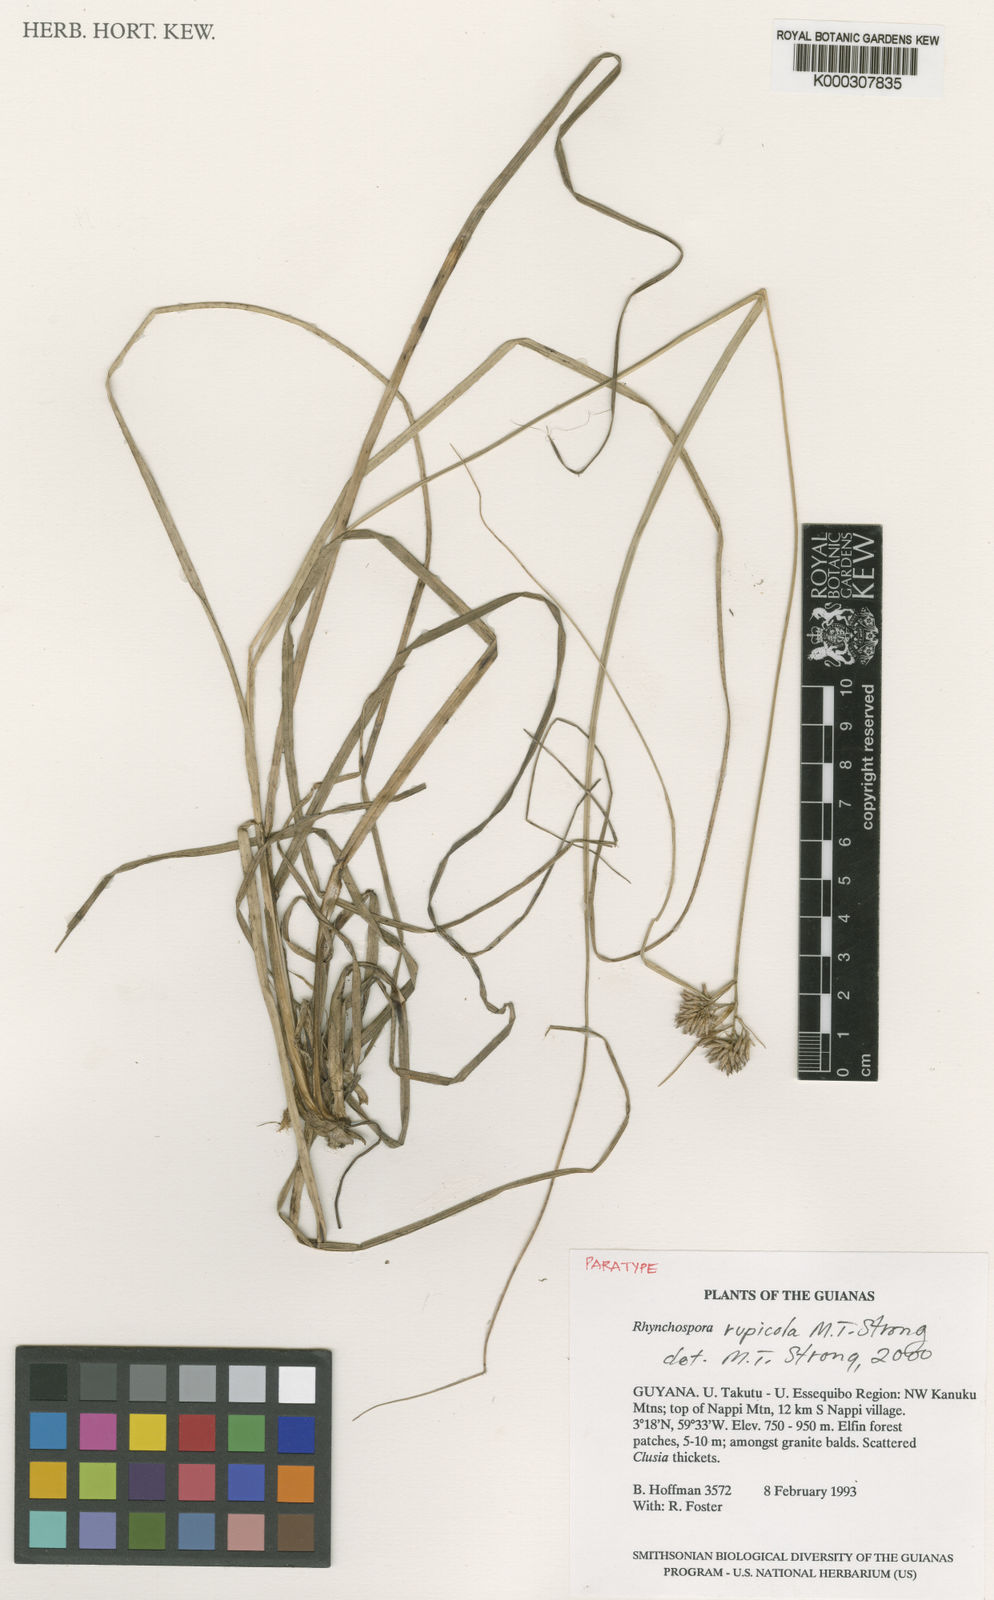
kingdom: Plantae
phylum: Tracheophyta
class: Liliopsida
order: Poales
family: Cyperaceae
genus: Rhynchospora
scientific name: Rhynchospora rupicola
